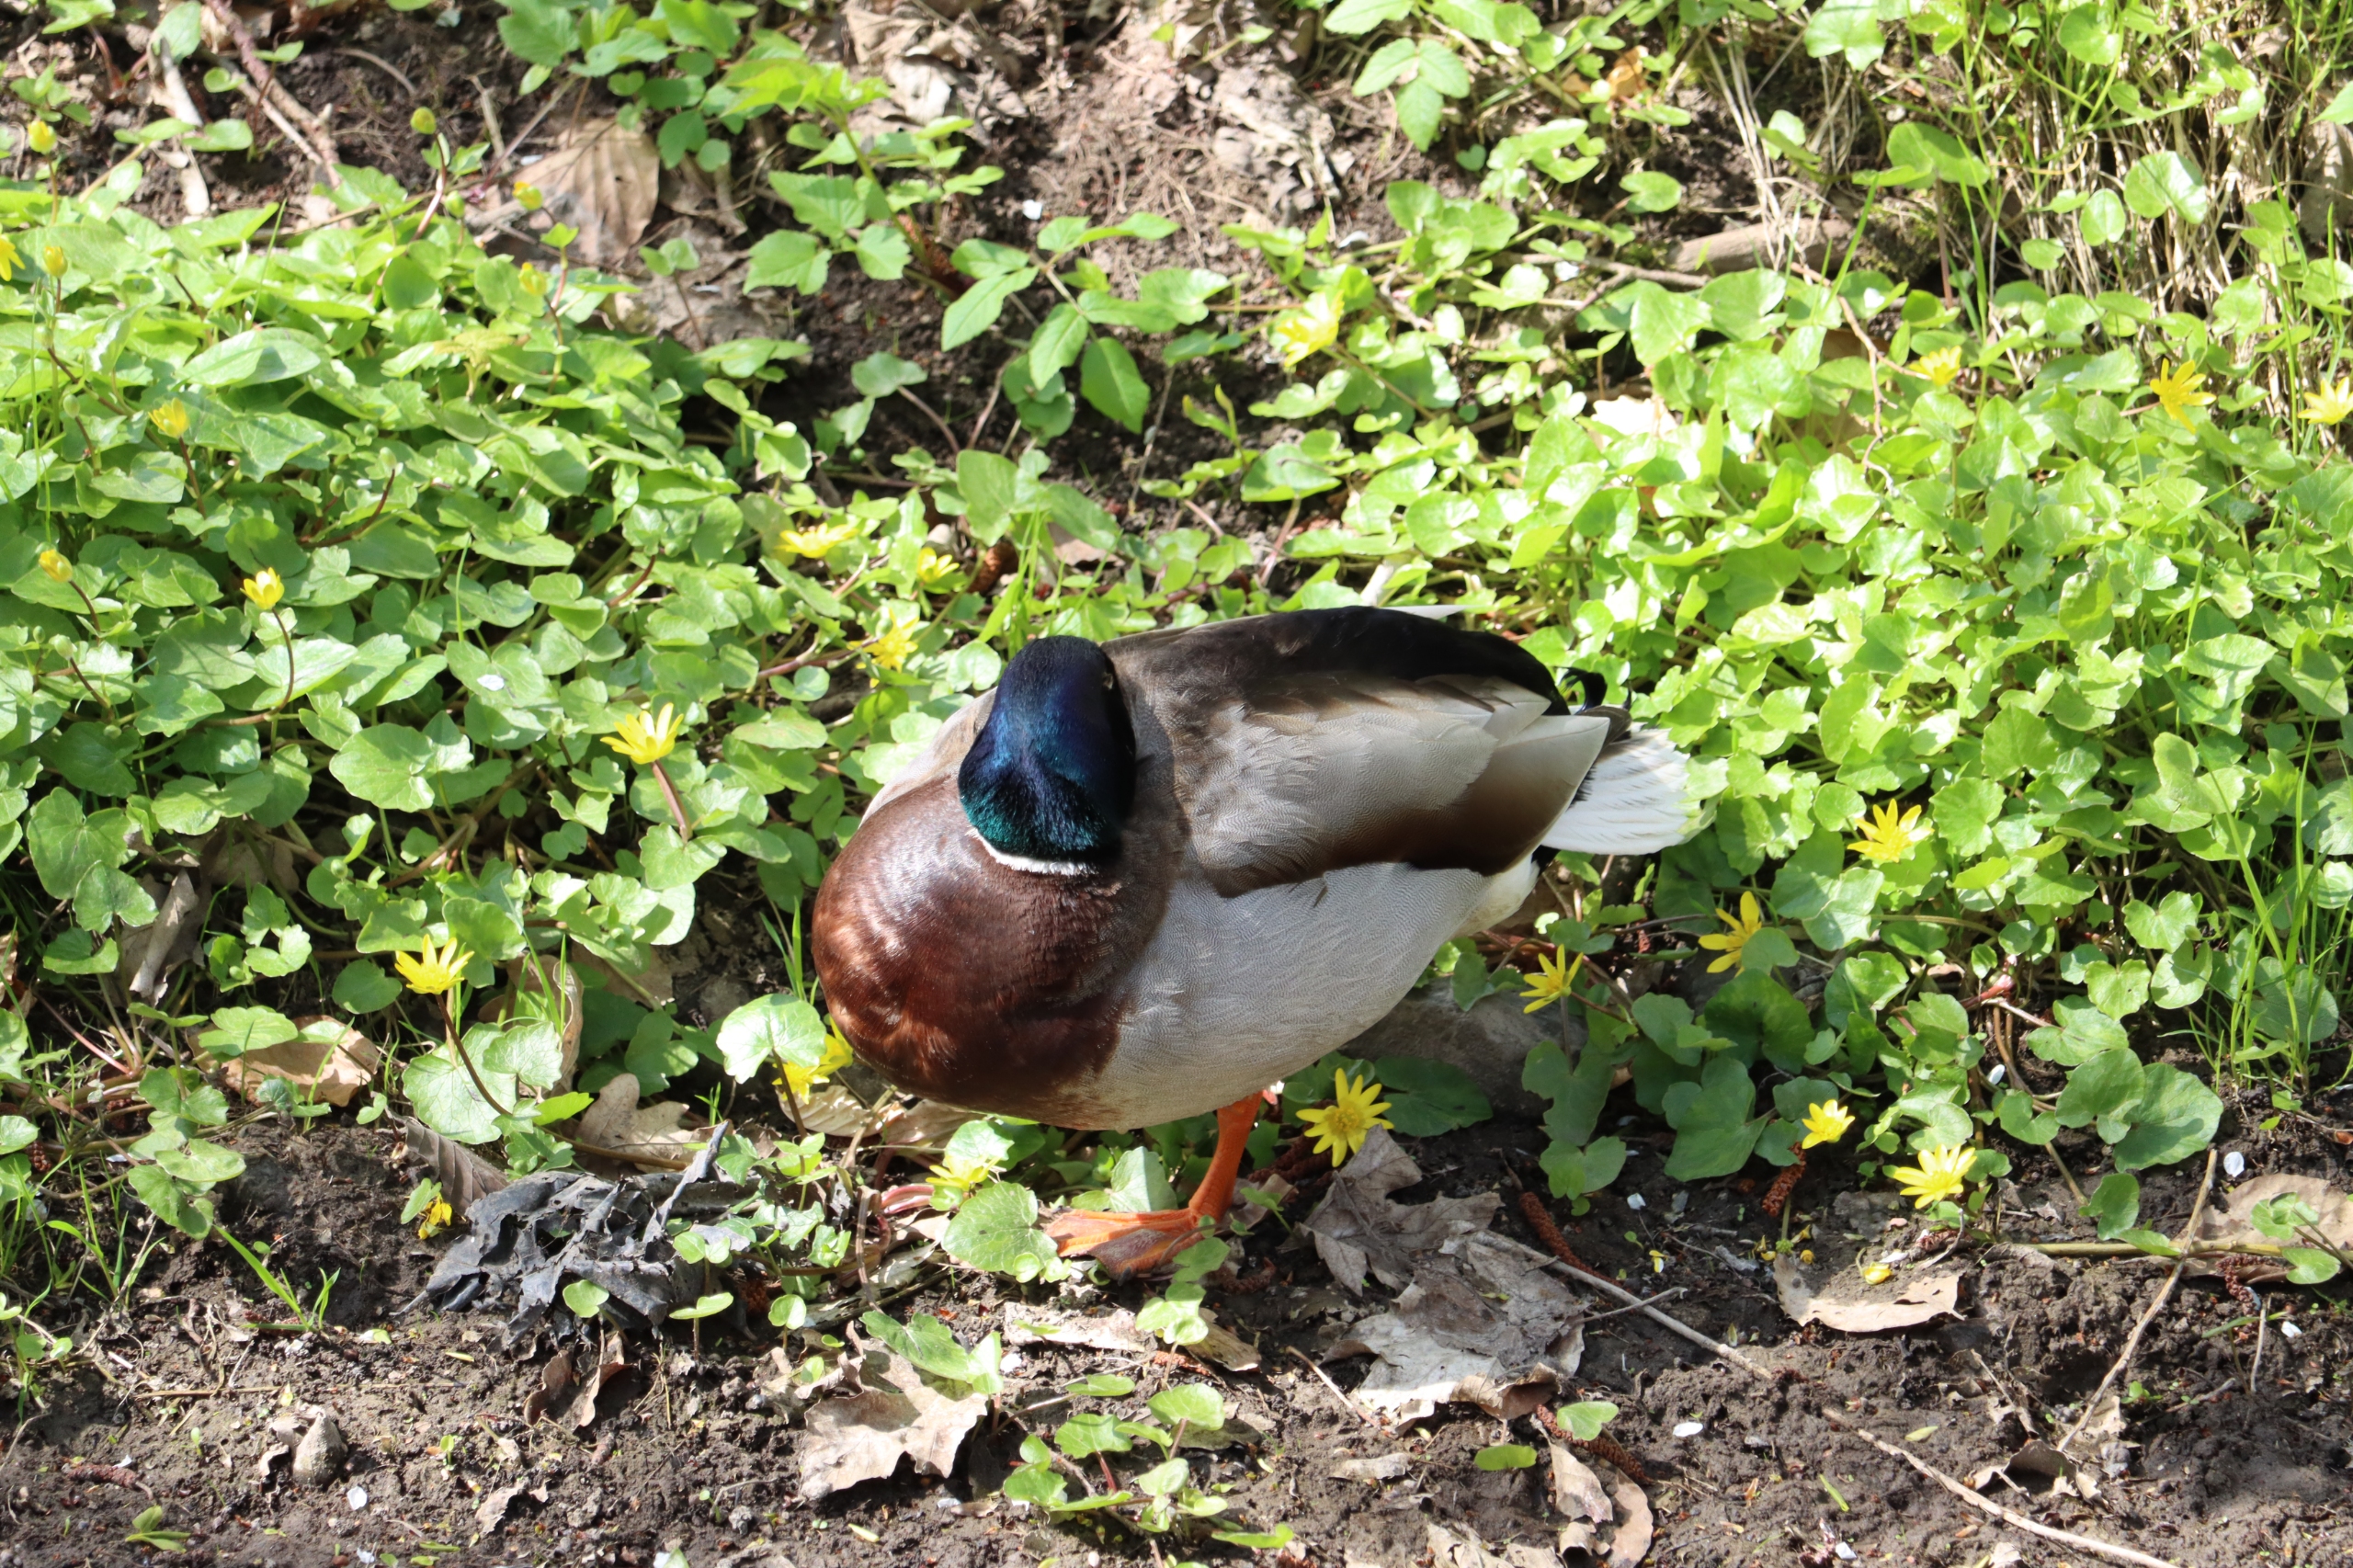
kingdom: Animalia
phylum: Chordata
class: Aves
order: Anseriformes
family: Anatidae
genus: Anas
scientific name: Anas platyrhynchos
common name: Gråand
